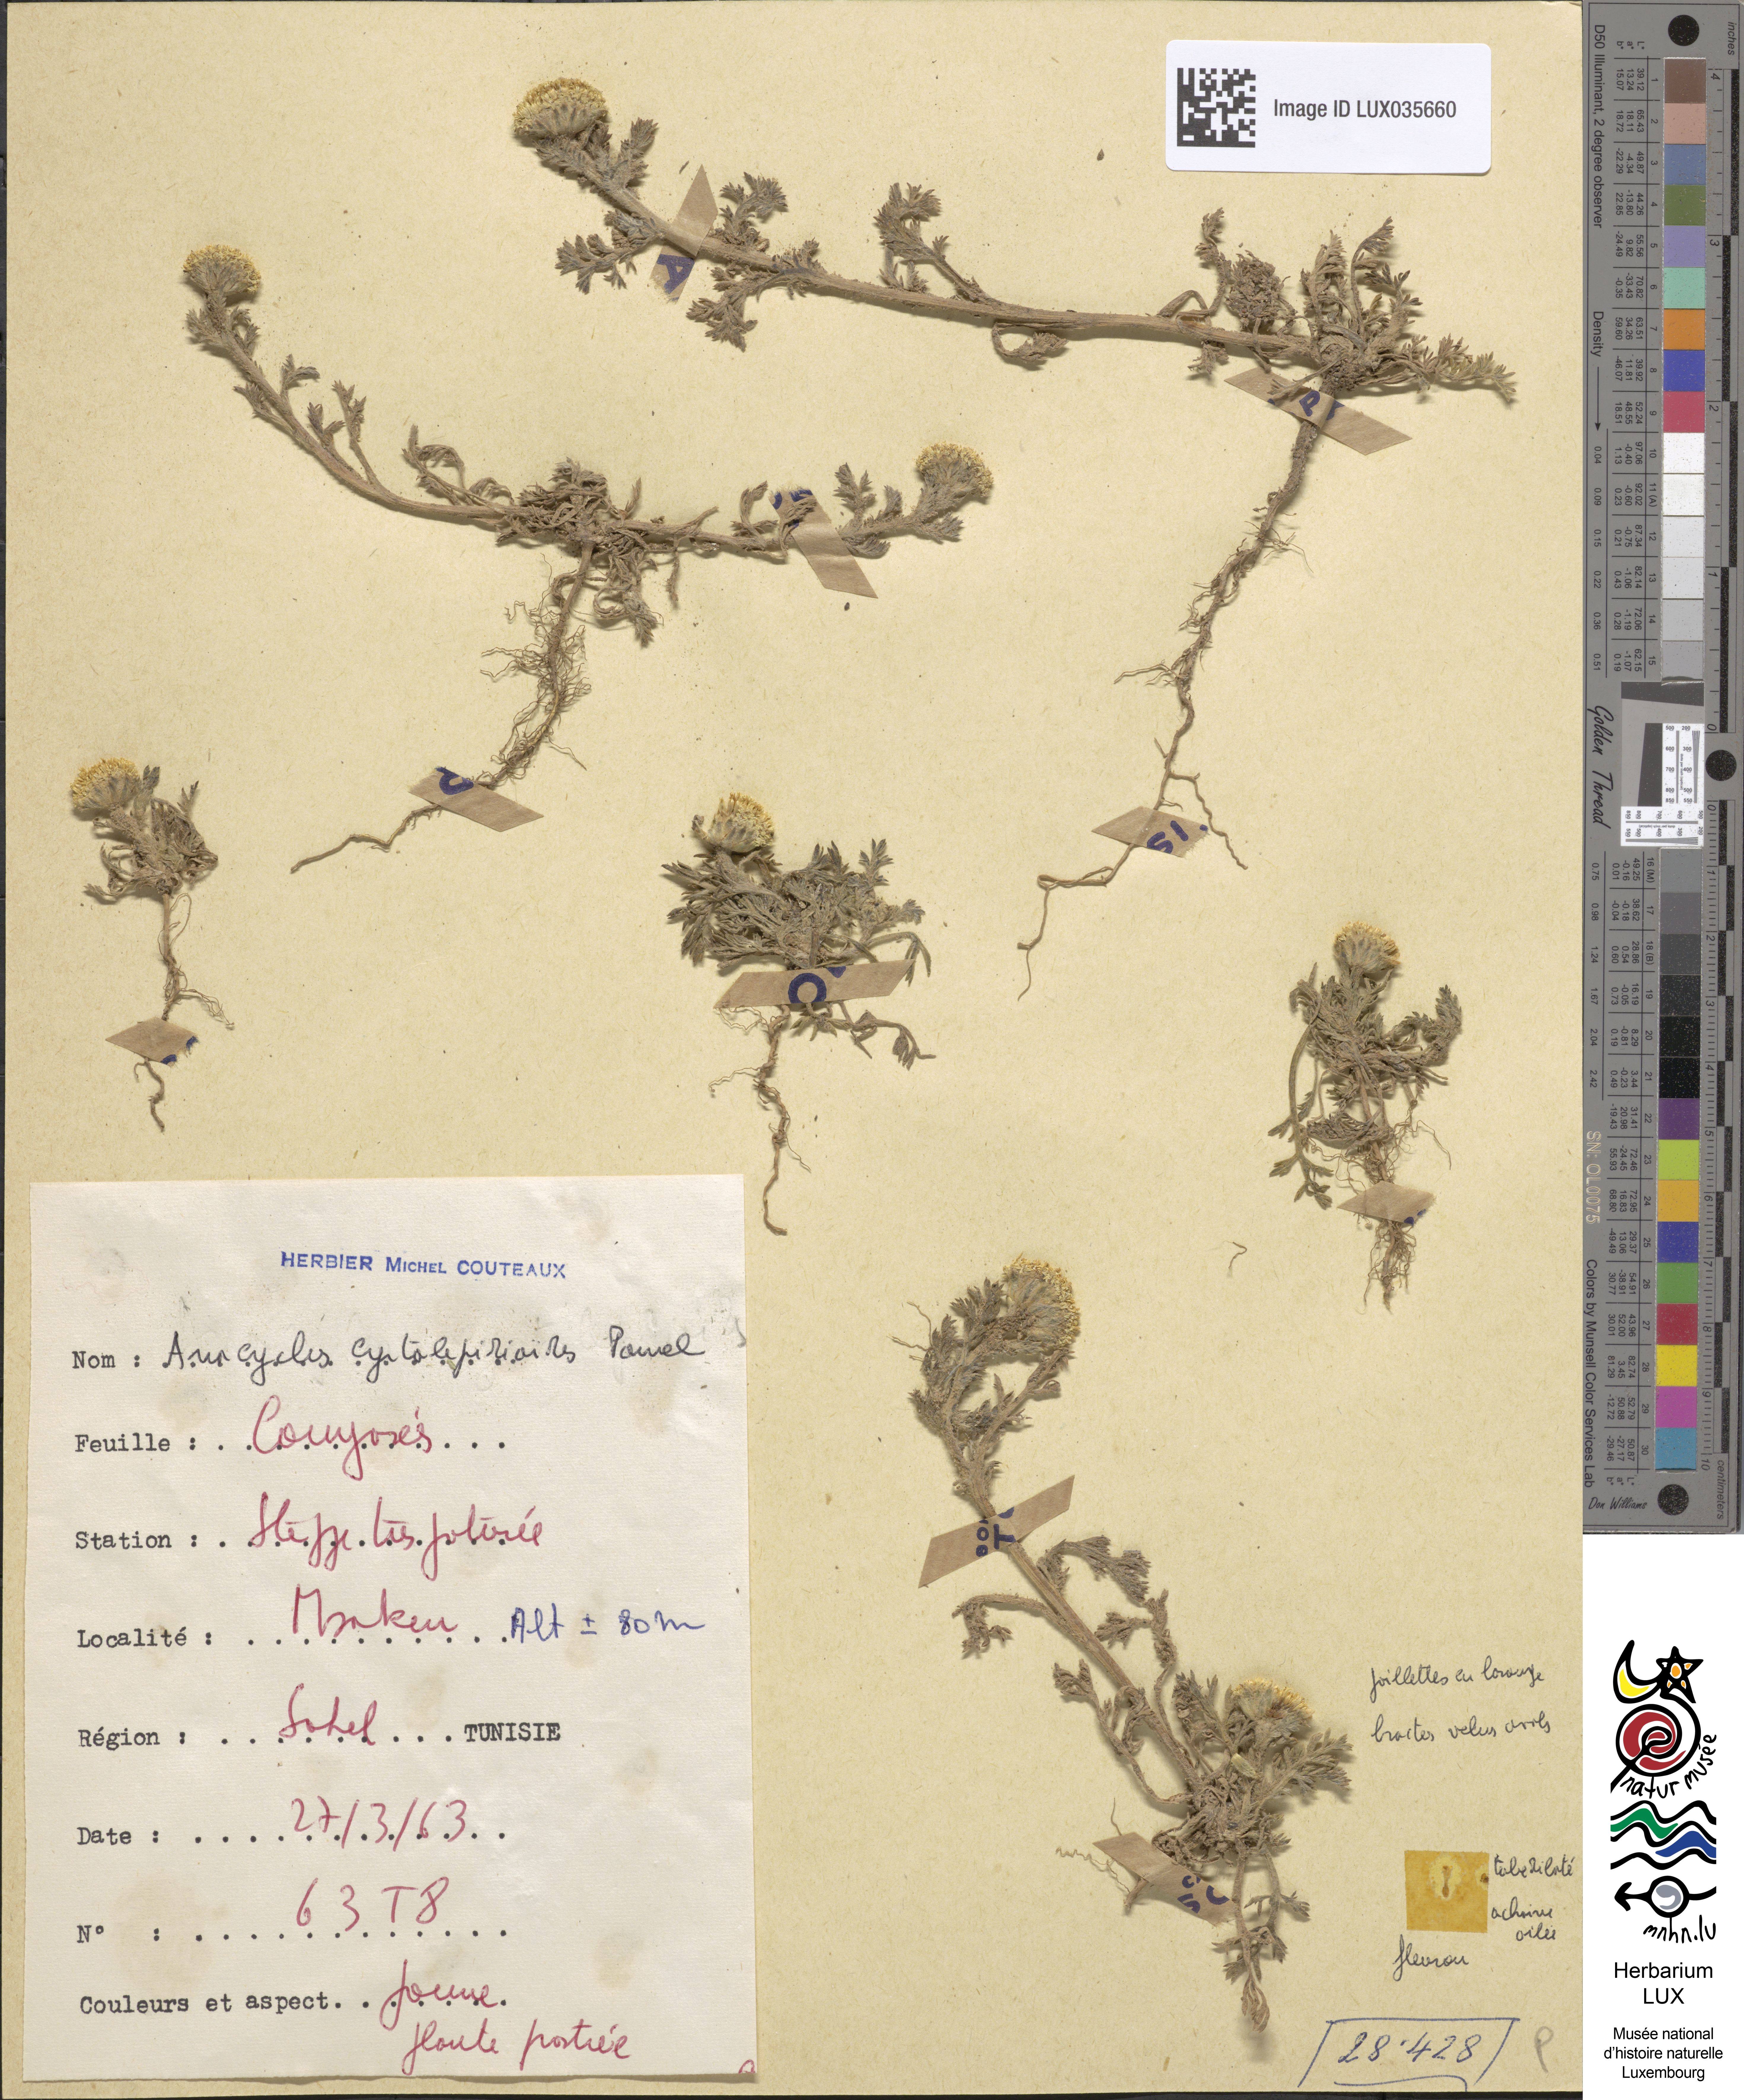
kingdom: Plantae
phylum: Tracheophyta
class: Magnoliopsida
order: Asterales
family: Asteraceae
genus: Anacyclus
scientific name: Anacyclus
